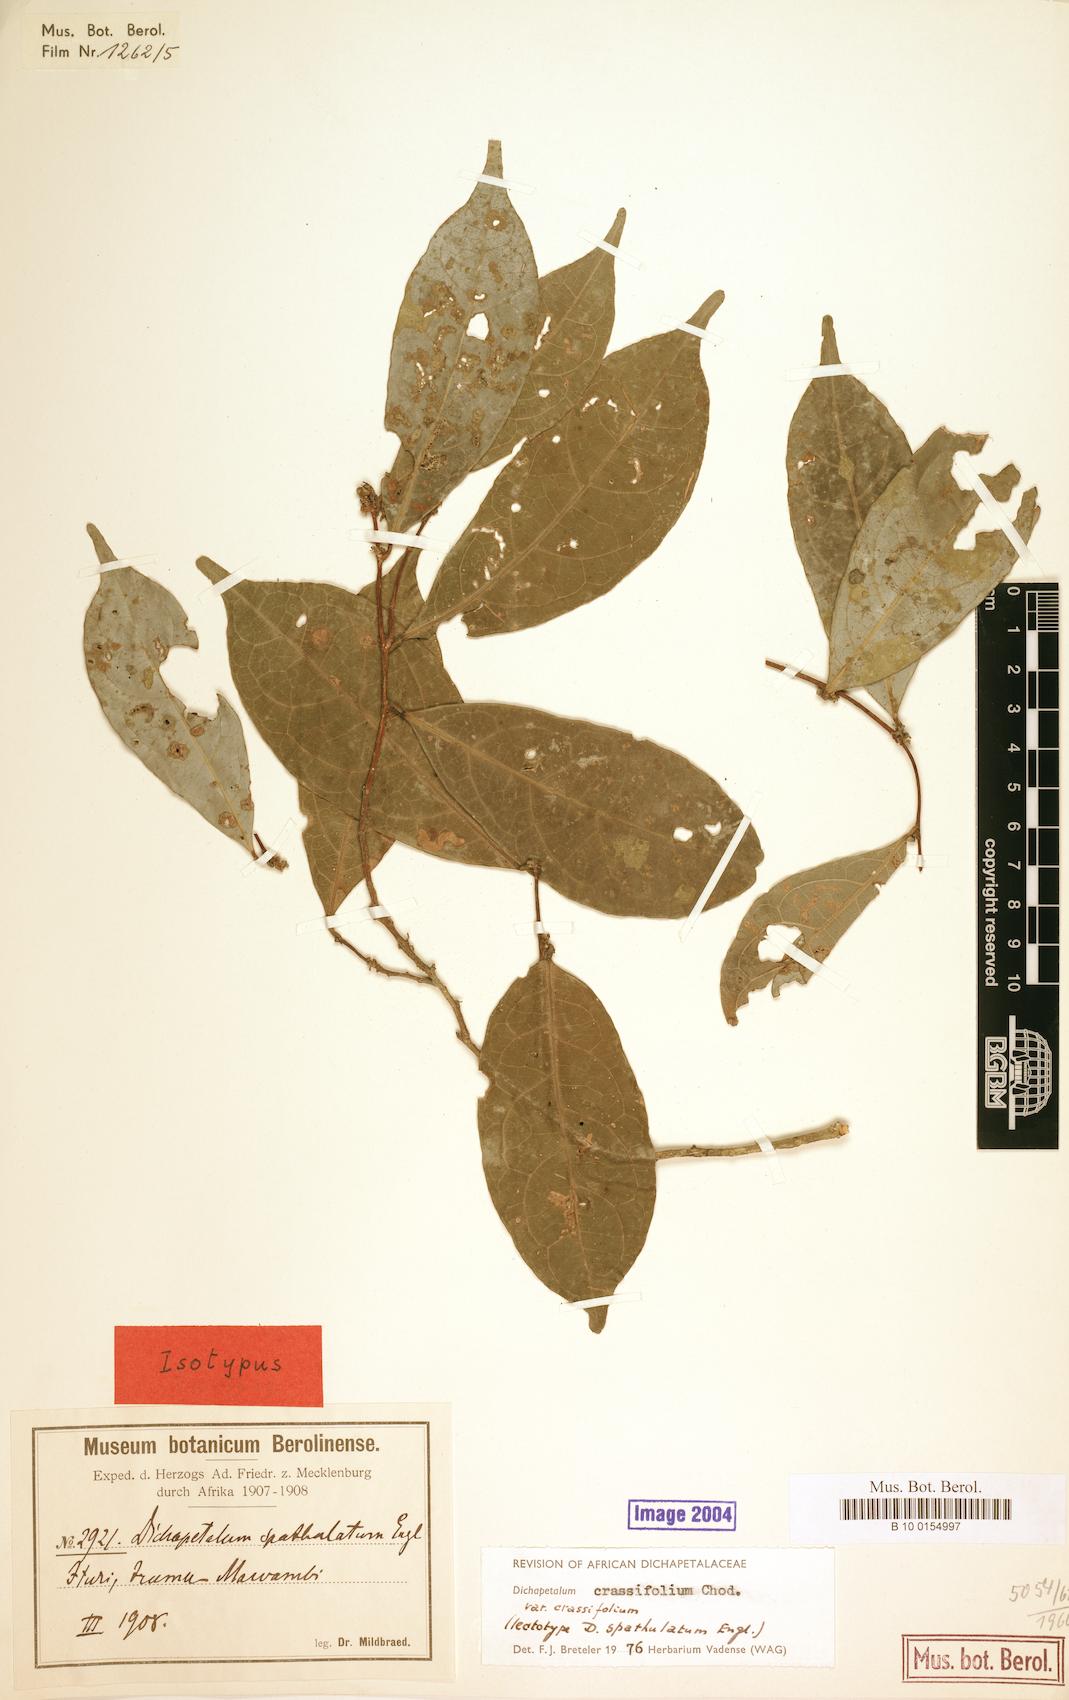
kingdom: Plantae
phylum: Tracheophyta
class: Magnoliopsida
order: Malpighiales
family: Dichapetalaceae
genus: Dichapetalum
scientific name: Dichapetalum crassifolium
